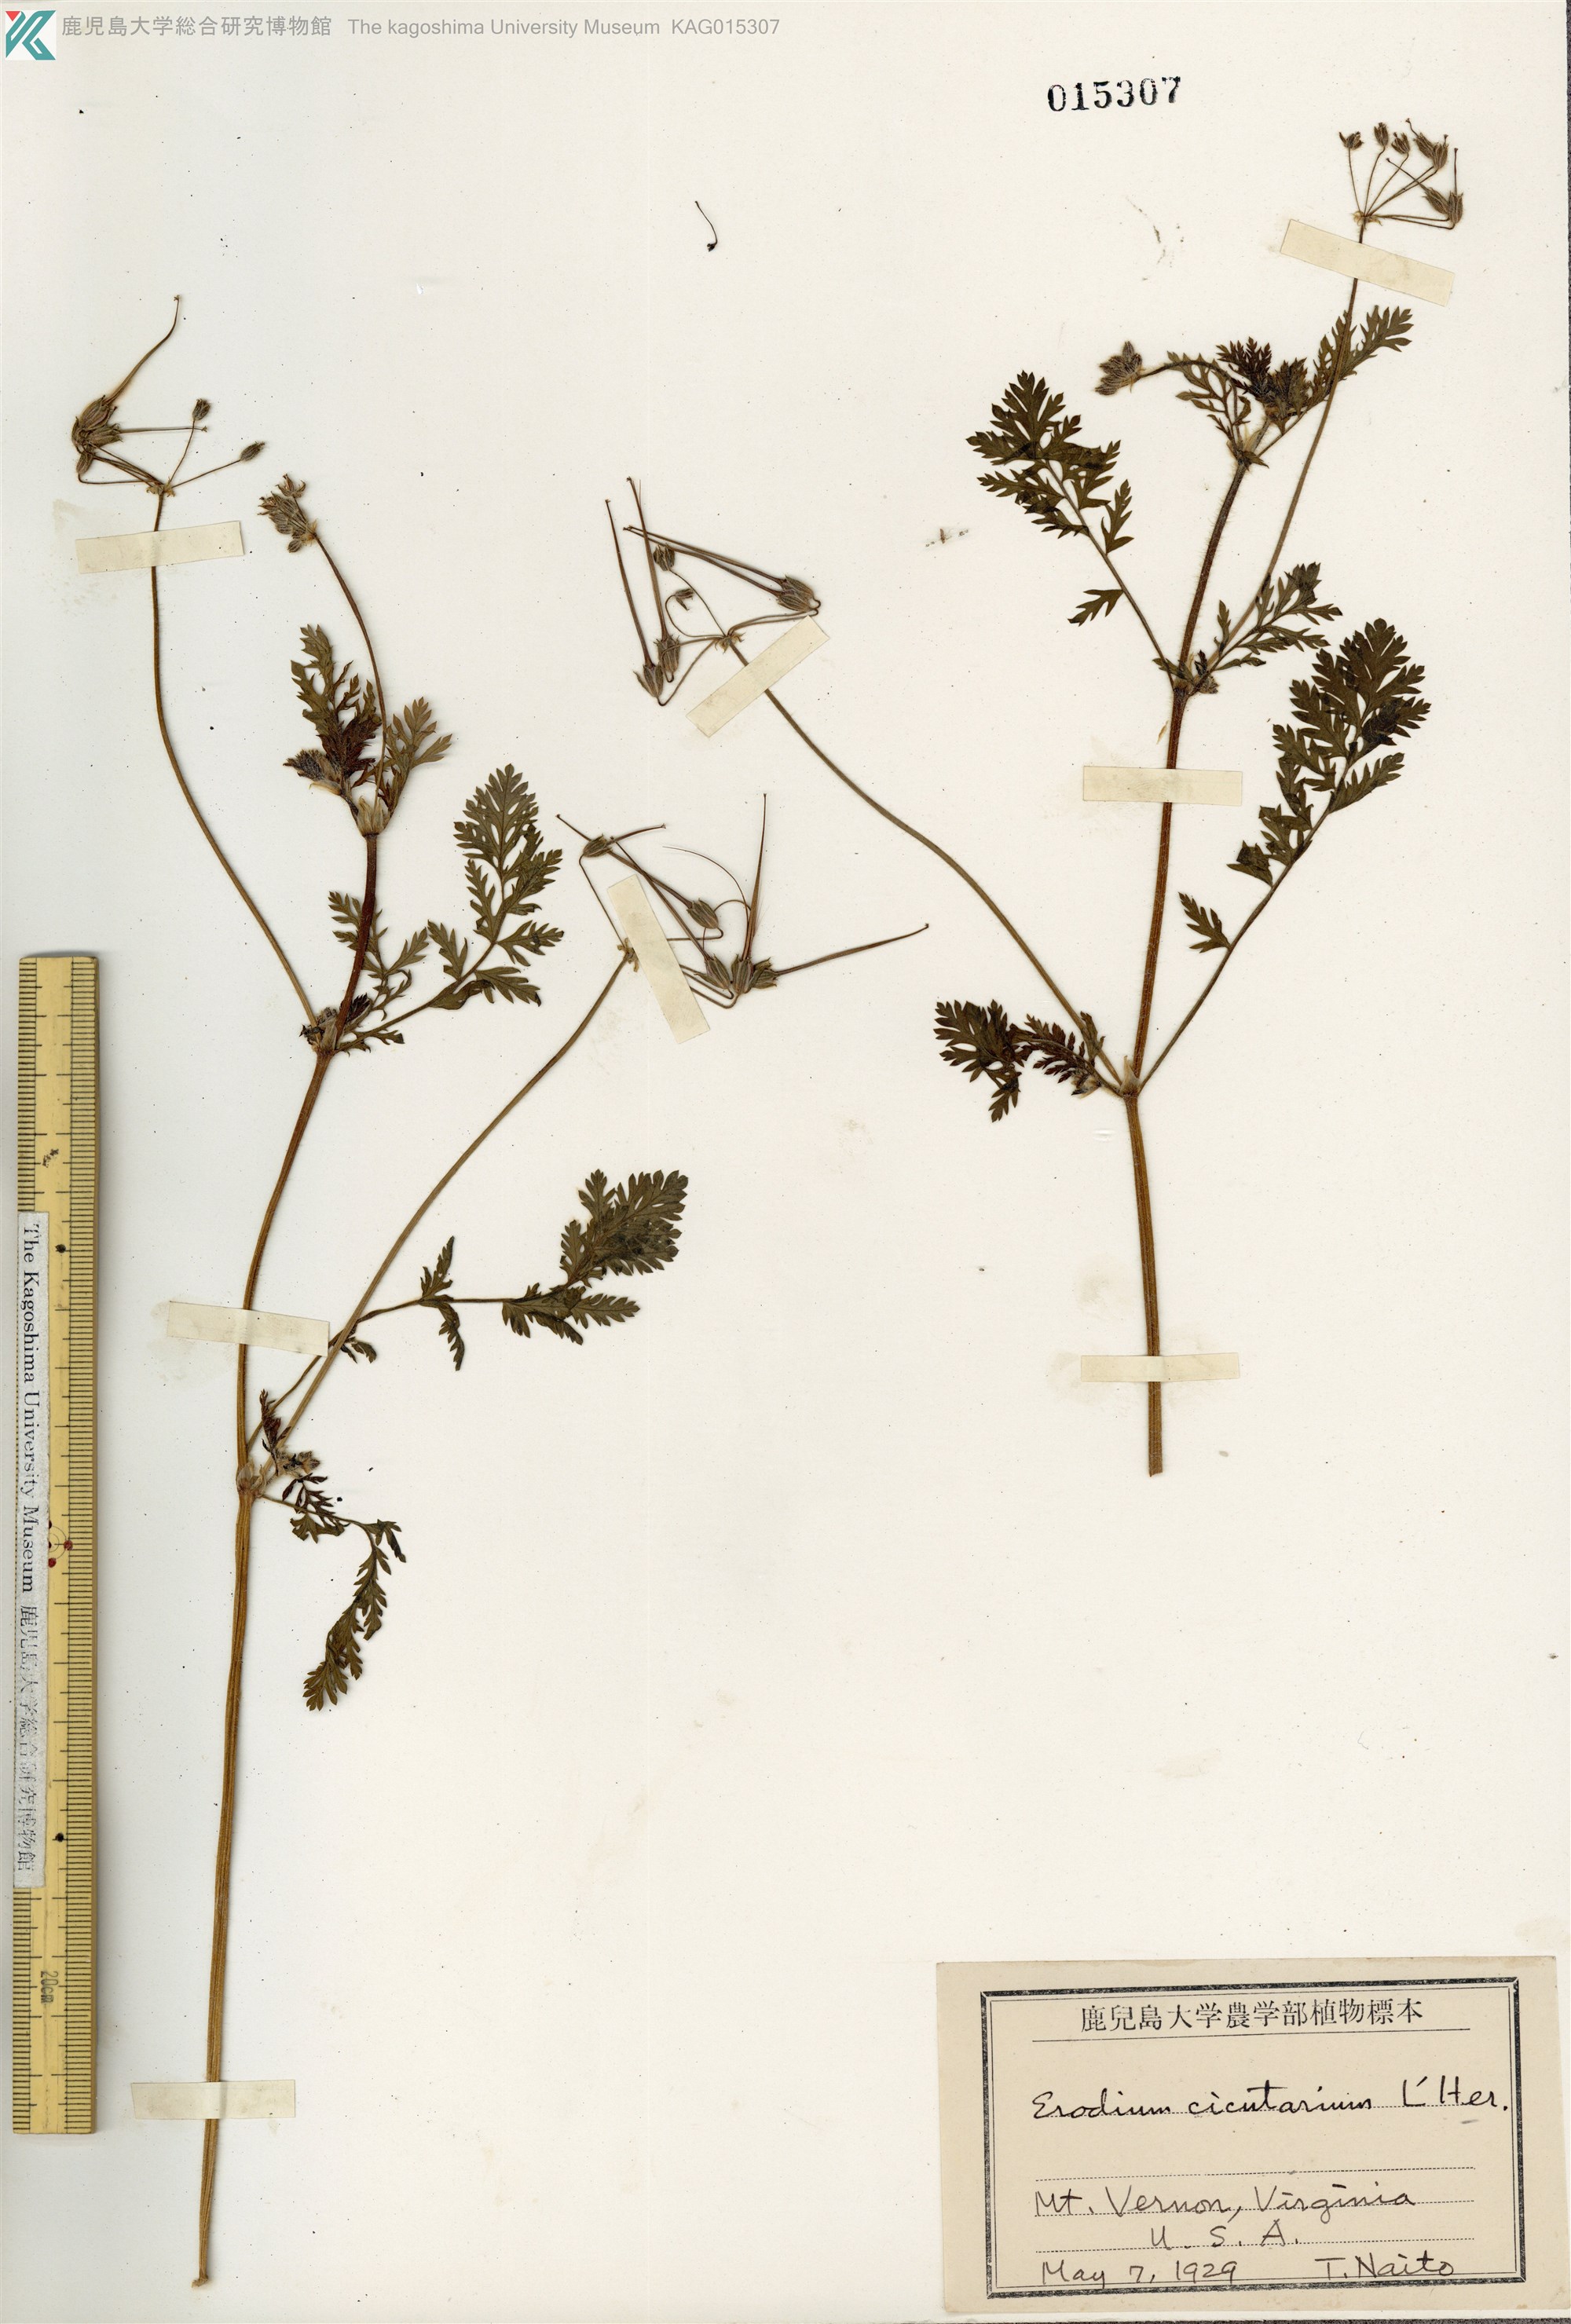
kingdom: Plantae
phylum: Tracheophyta
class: Magnoliopsida
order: Geraniales
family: Geraniaceae
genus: Erodium
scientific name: Erodium cicutarium
